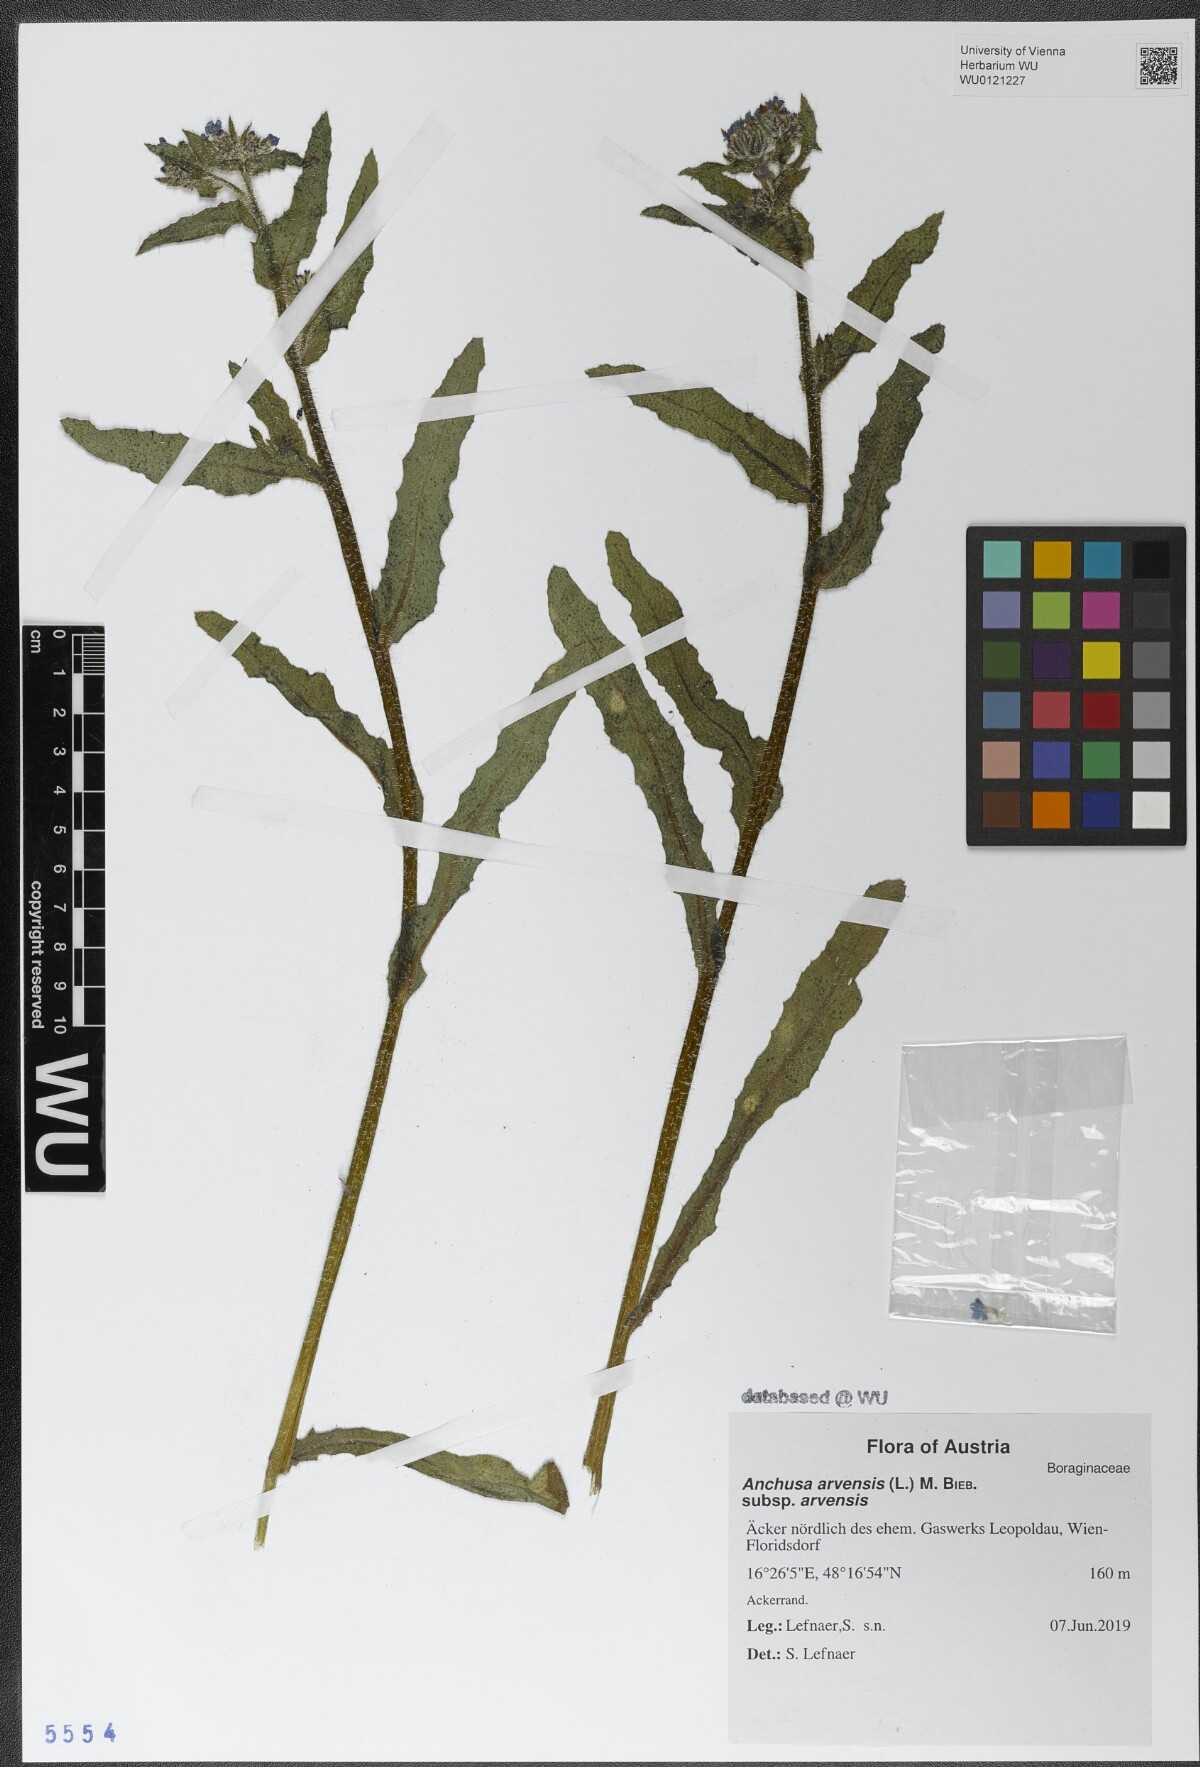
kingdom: Plantae
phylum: Tracheophyta
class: Magnoliopsida
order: Boraginales
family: Boraginaceae
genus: Lycopsis
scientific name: Lycopsis arvensis
